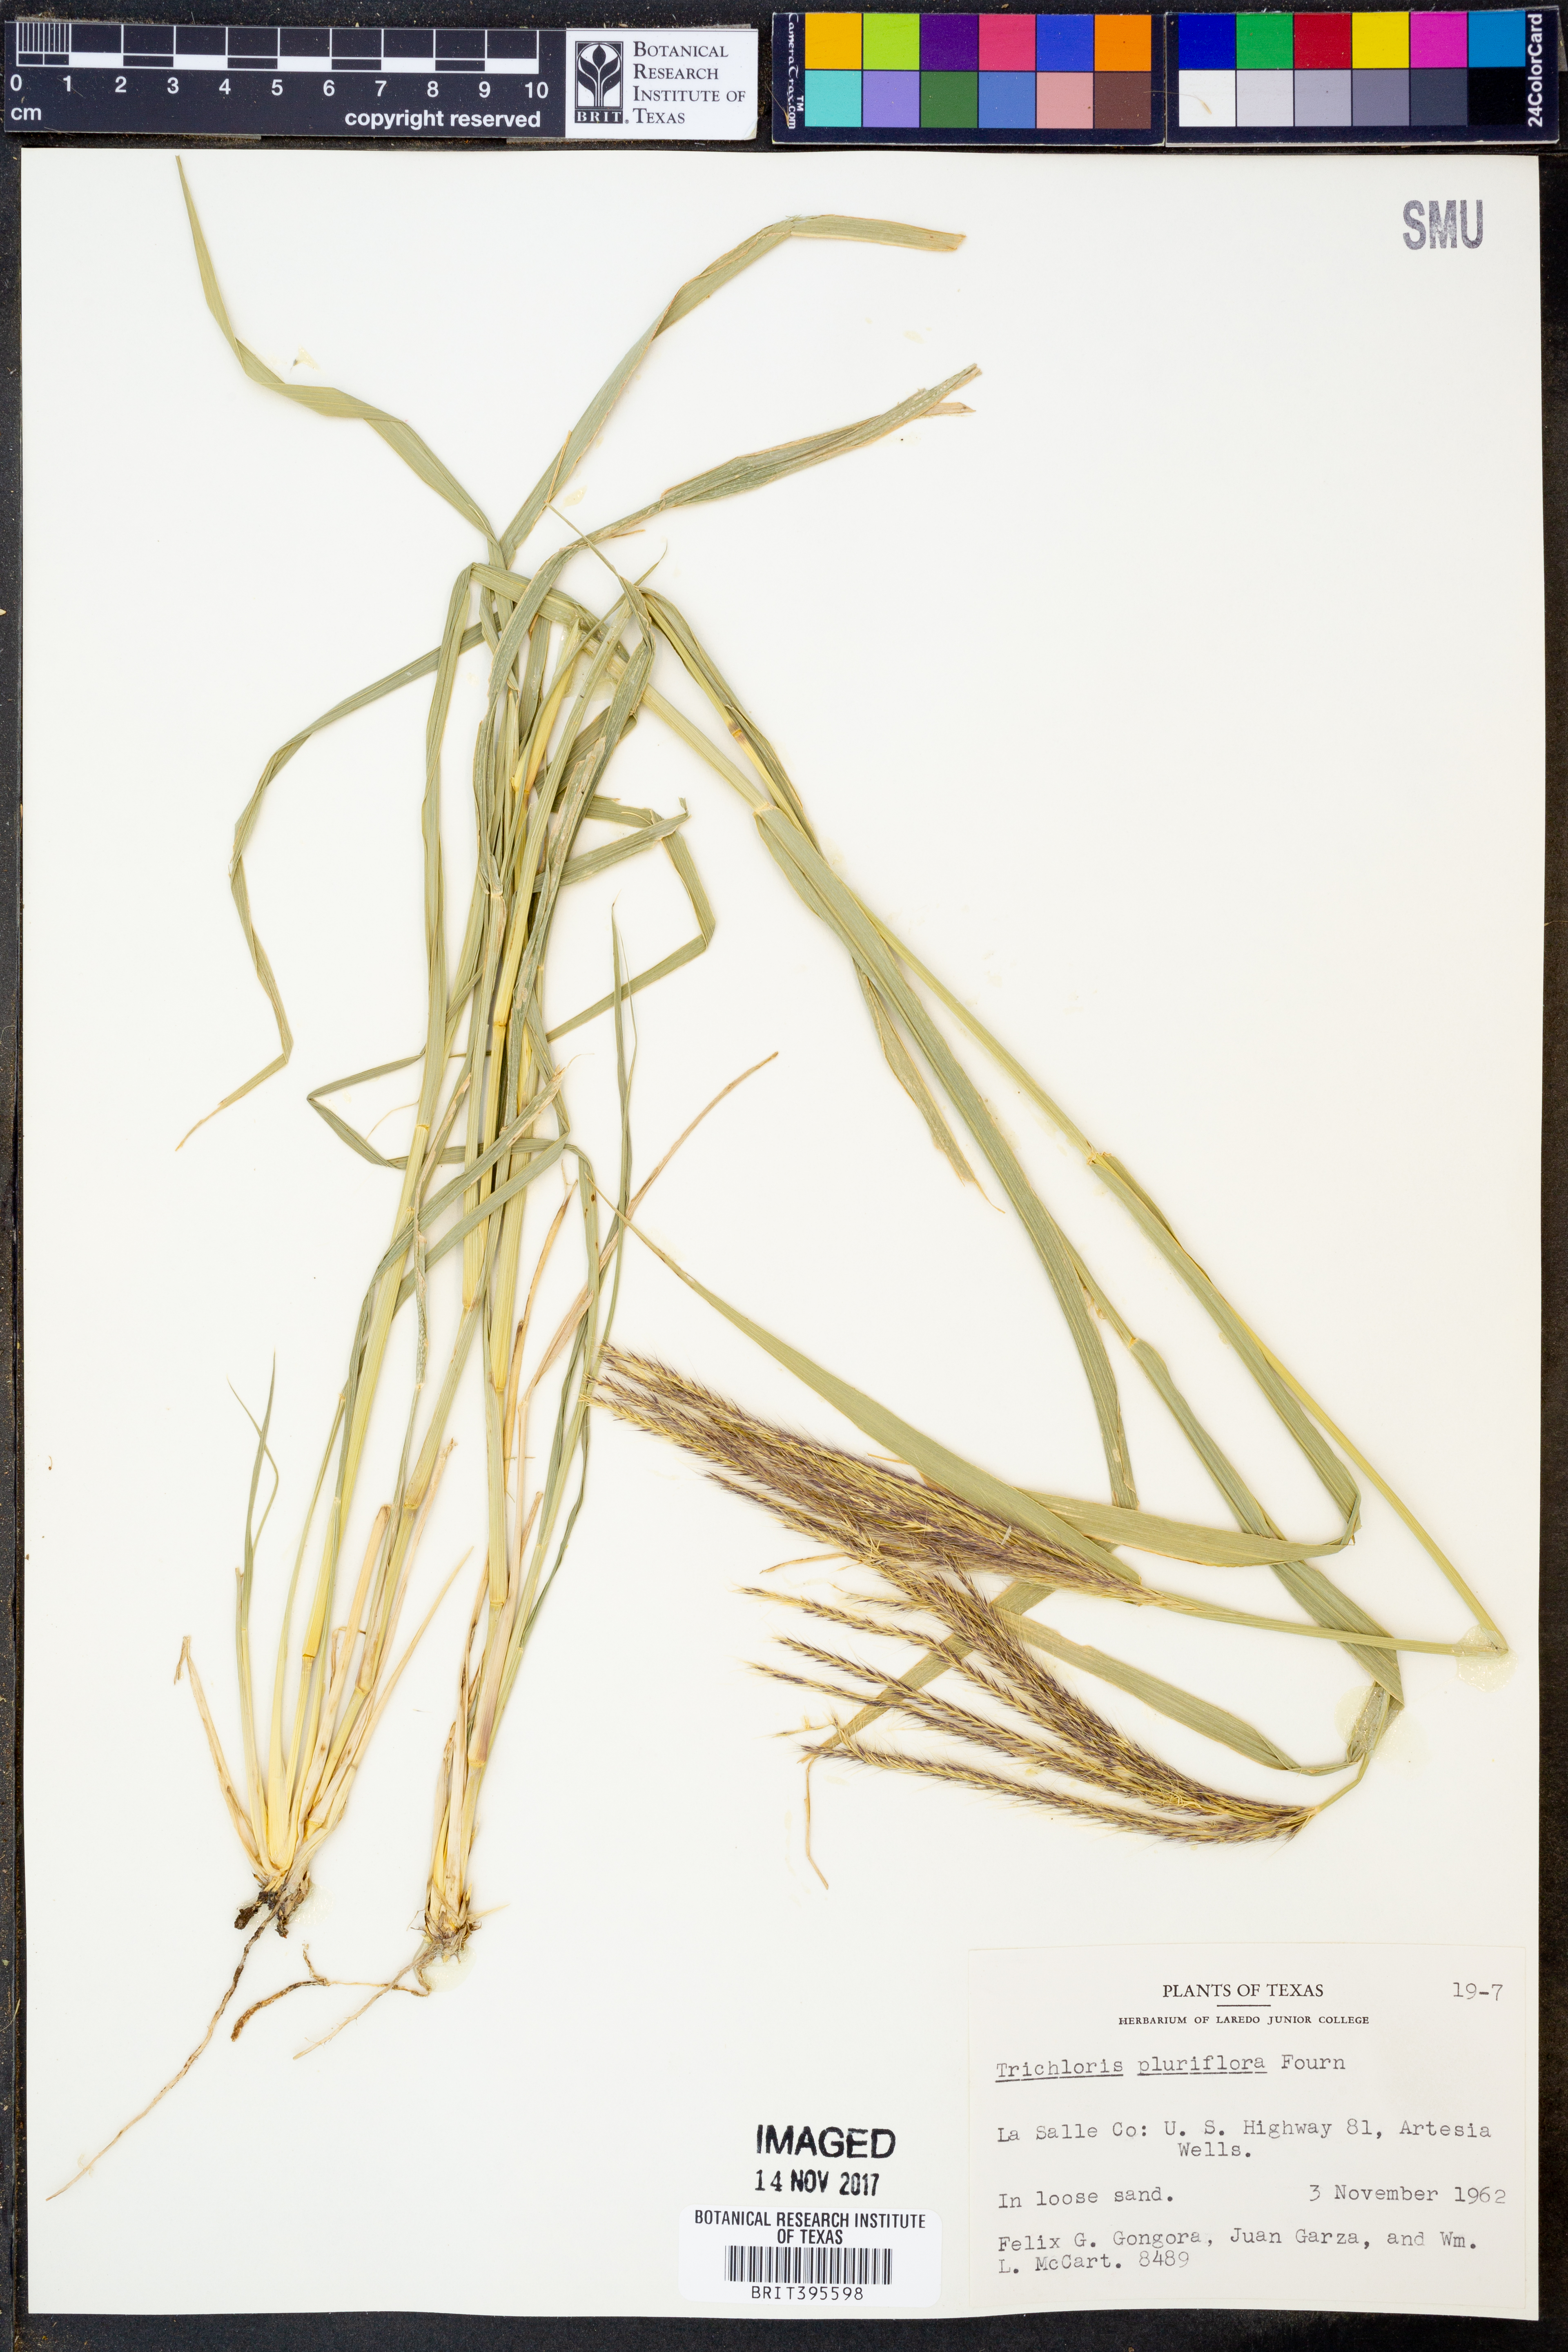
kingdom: Plantae
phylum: Tracheophyta
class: Liliopsida
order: Poales
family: Poaceae
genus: Leptochloa
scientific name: Leptochloa pluriflora
